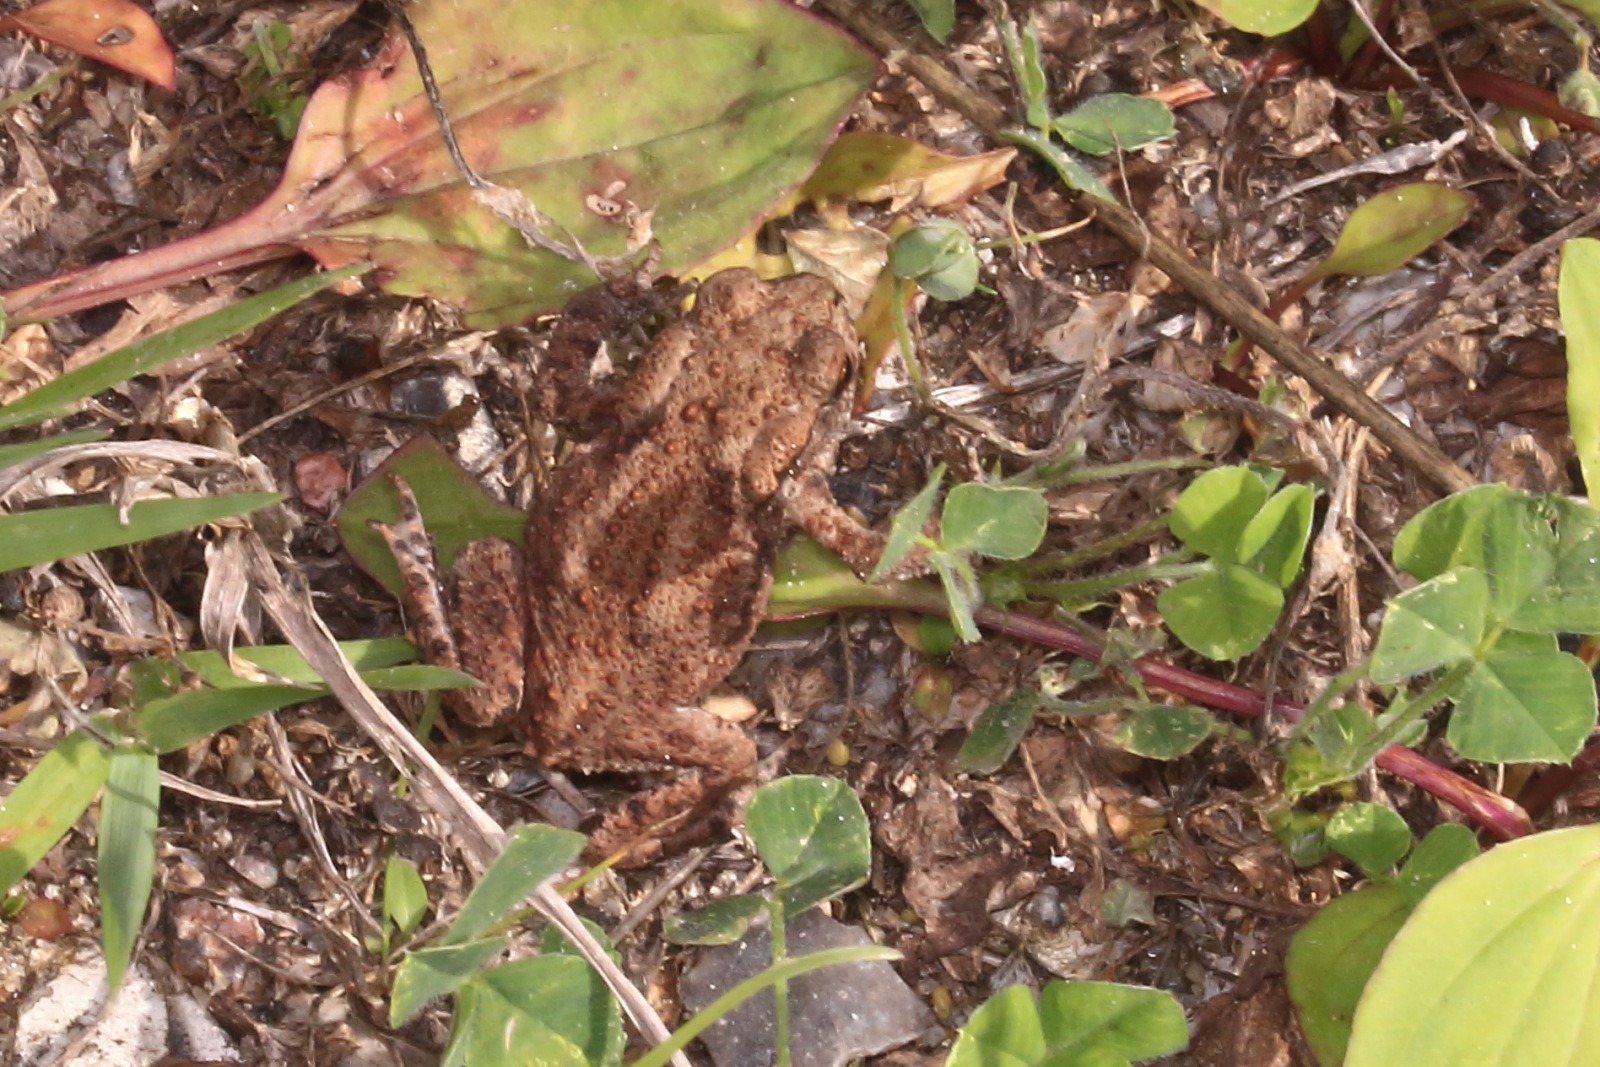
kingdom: Animalia
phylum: Chordata
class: Amphibia
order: Anura
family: Bufonidae
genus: Bufo
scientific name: Bufo bufo
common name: Skrubtudse
